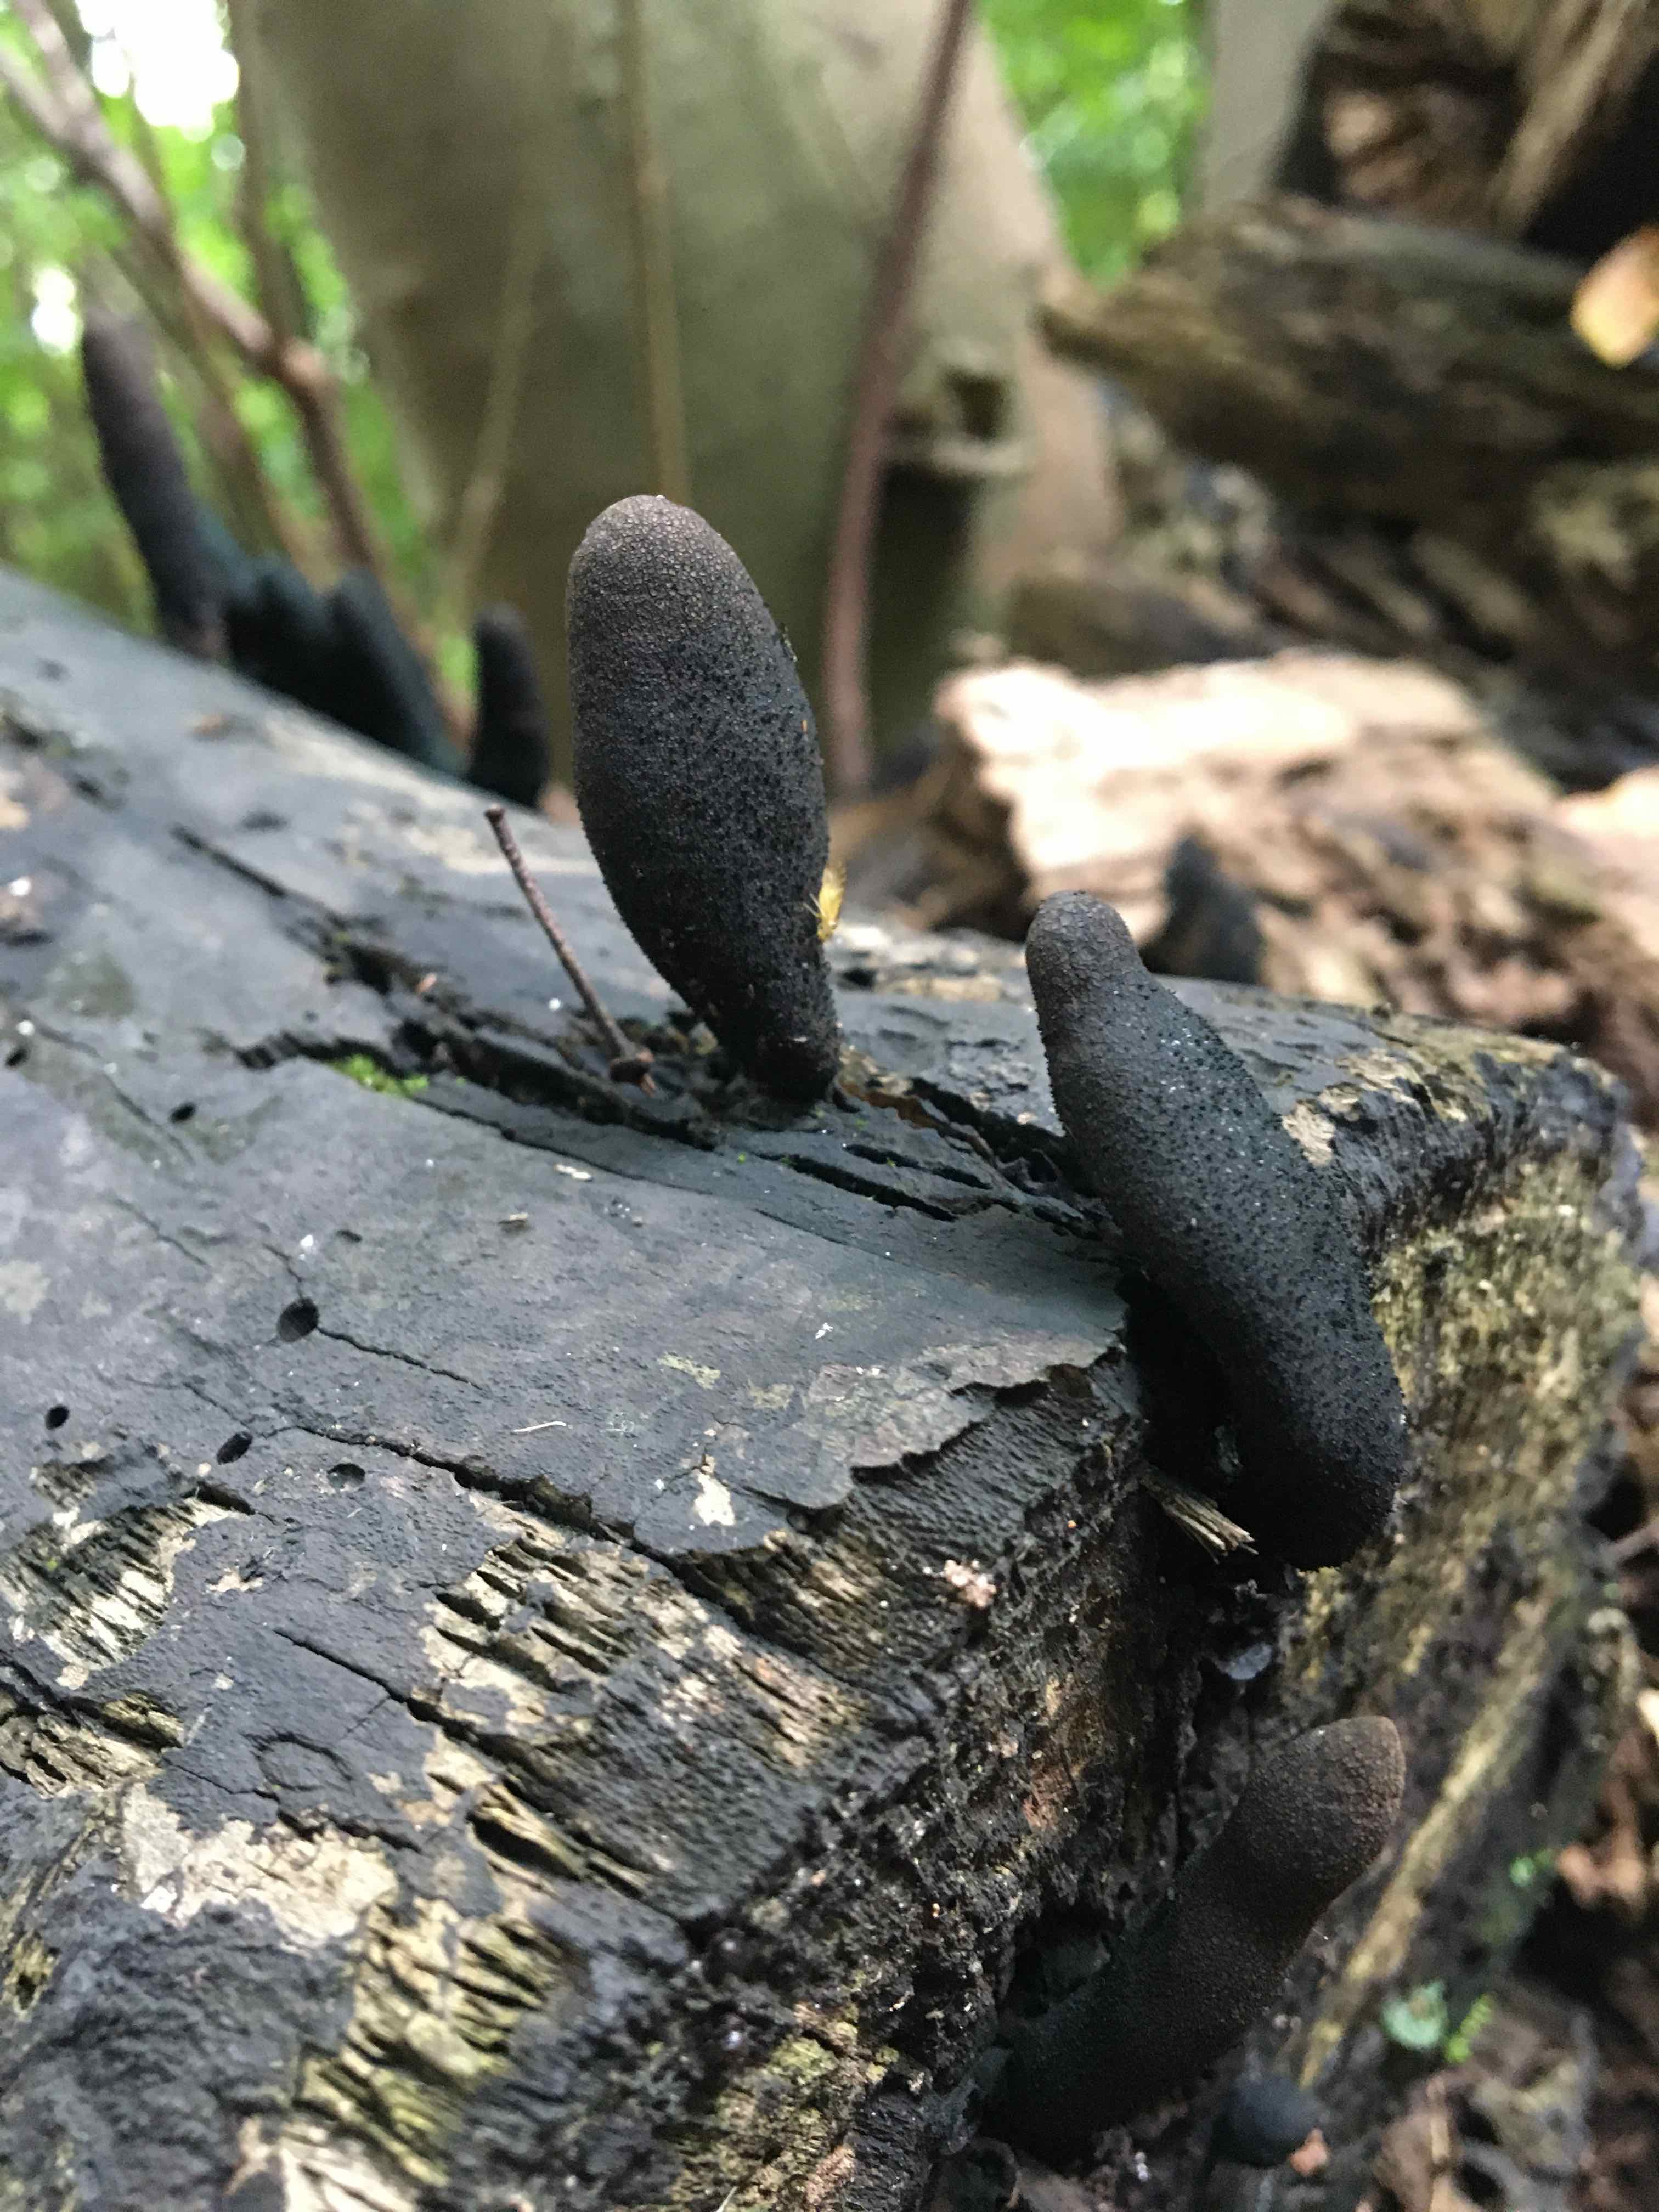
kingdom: Fungi
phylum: Ascomycota
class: Sordariomycetes
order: Xylariales
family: Xylariaceae
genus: Xylaria
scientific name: Xylaria longipes
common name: slank stødsvamp
